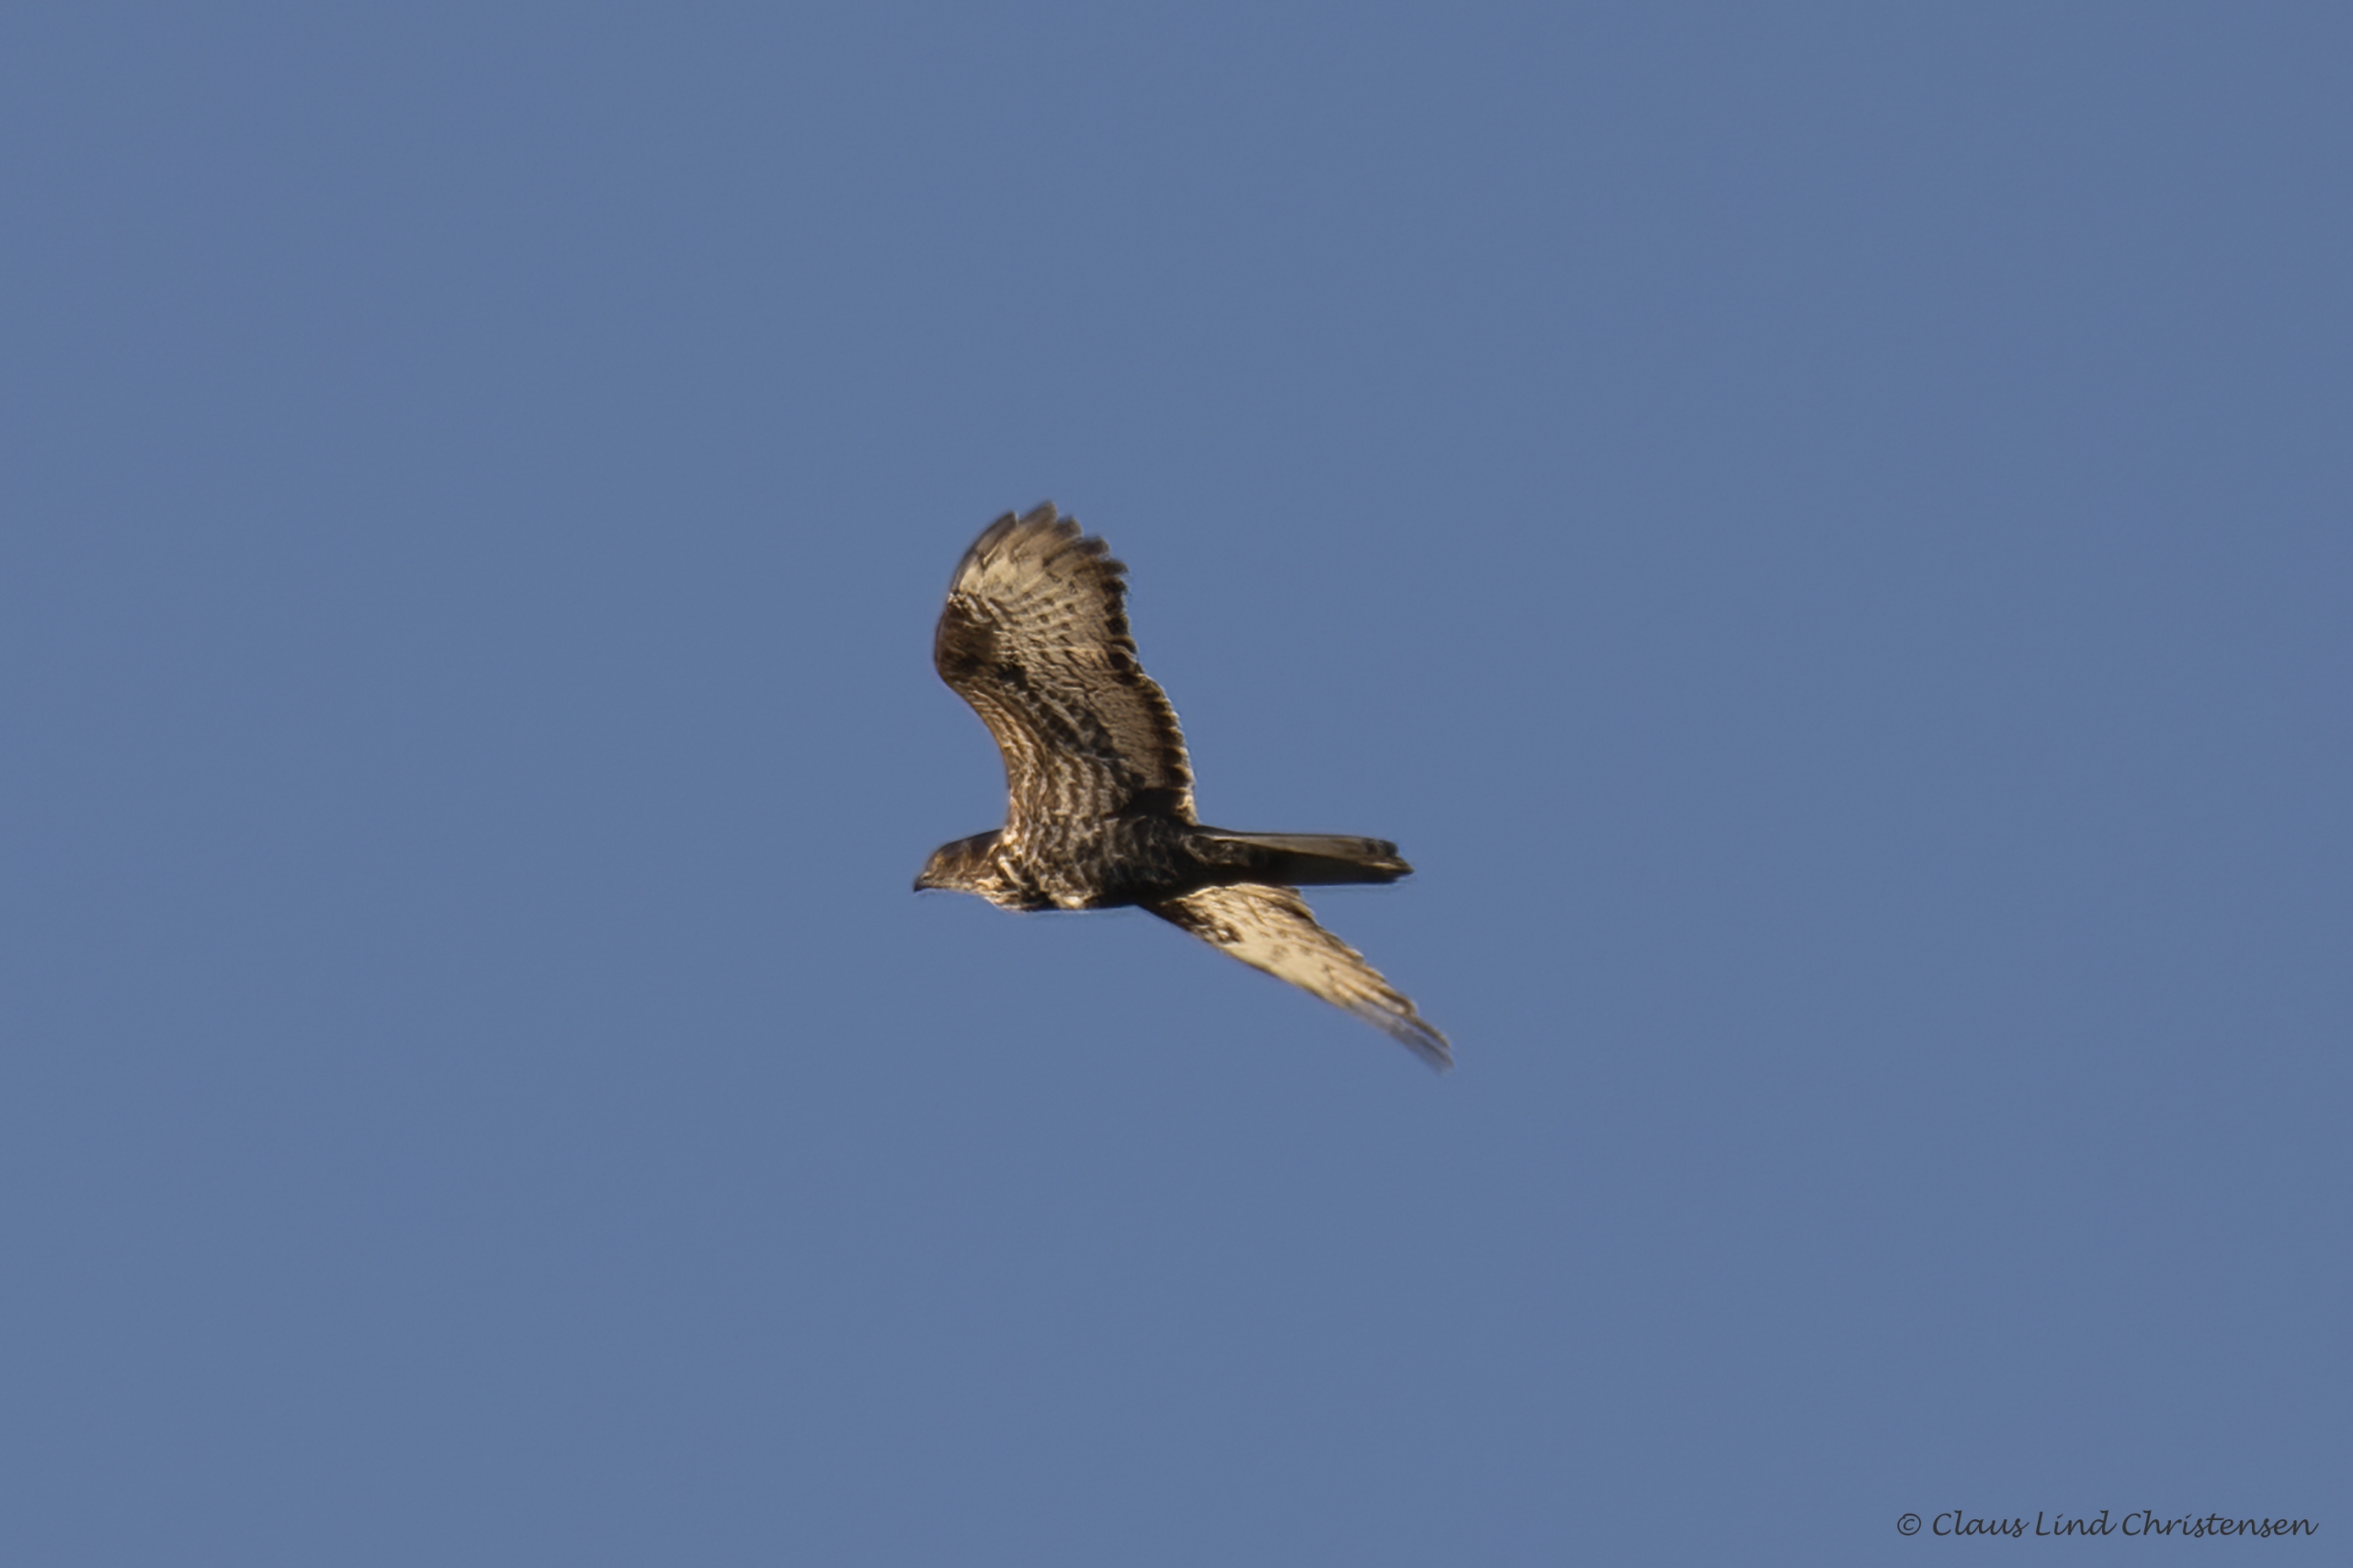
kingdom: Animalia
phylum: Chordata
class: Aves
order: Accipitriformes
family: Accipitridae
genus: Pernis
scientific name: Pernis apivorus
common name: Hvepsevåge
